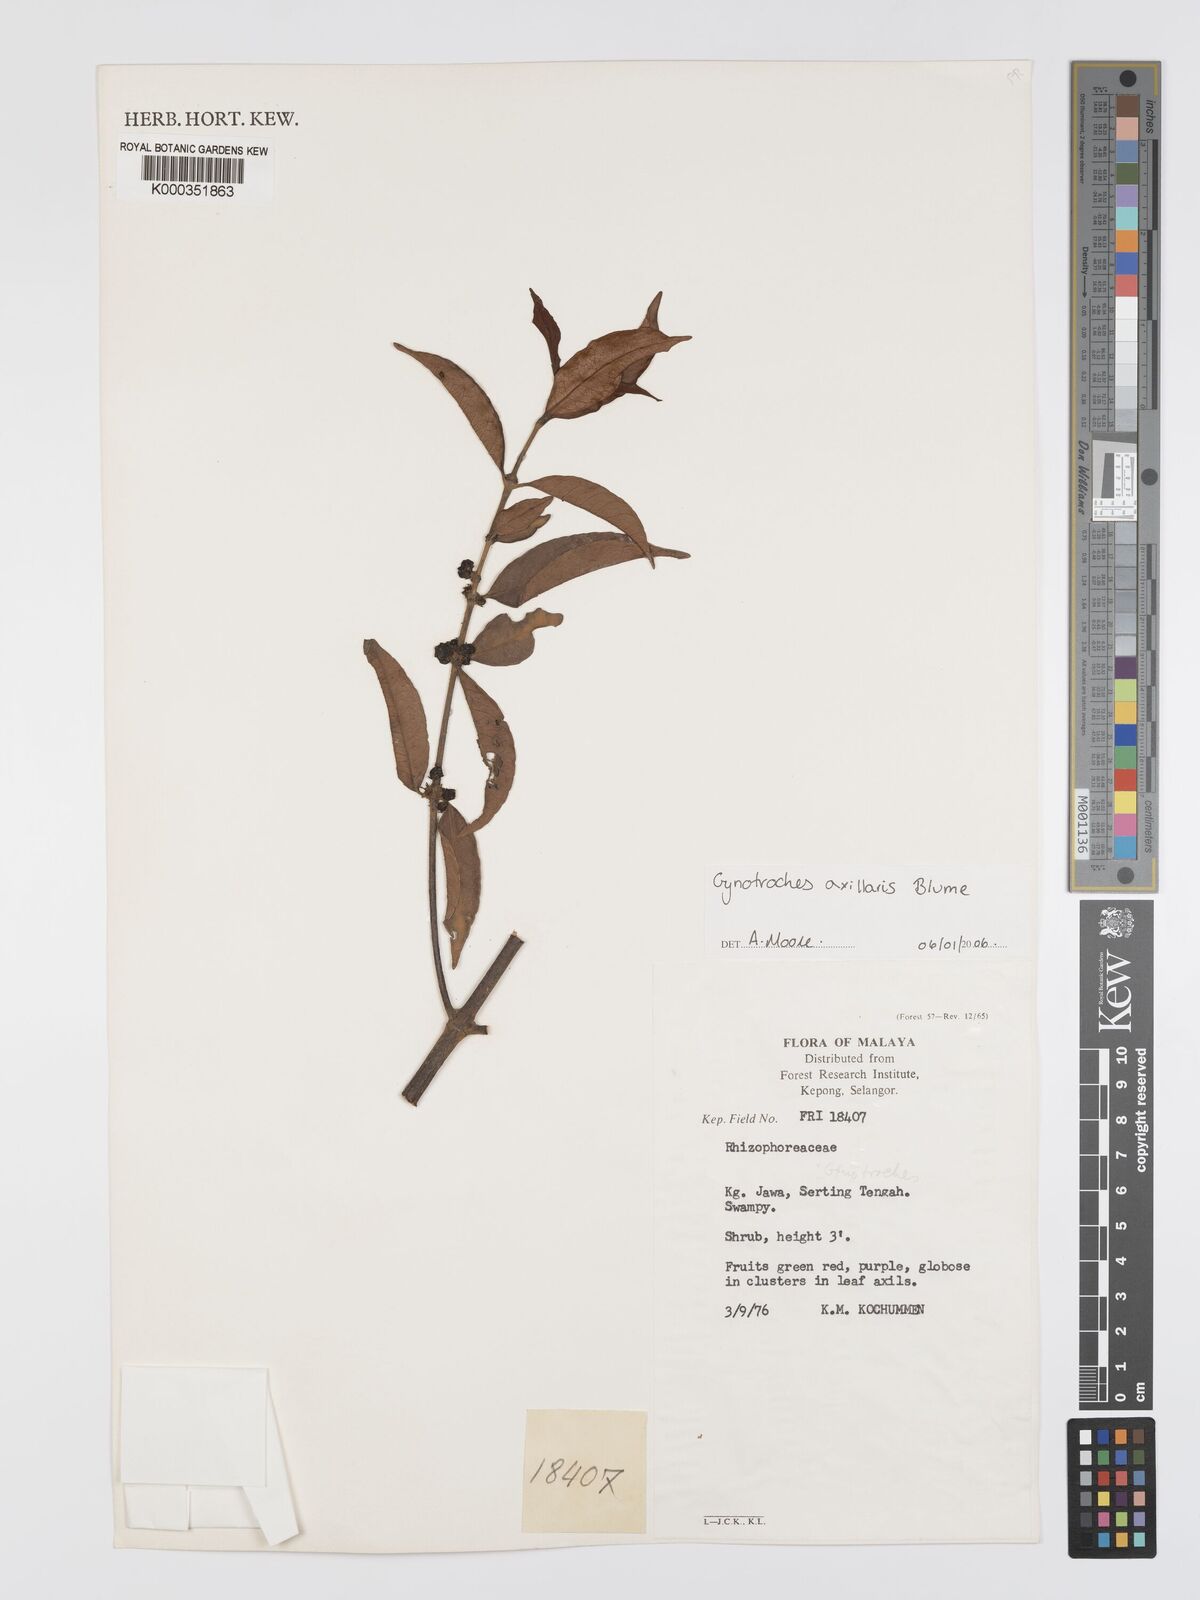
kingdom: Plantae
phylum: Tracheophyta
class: Magnoliopsida
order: Malpighiales
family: Rhizophoraceae
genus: Gynotroches
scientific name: Gynotroches axillaris
